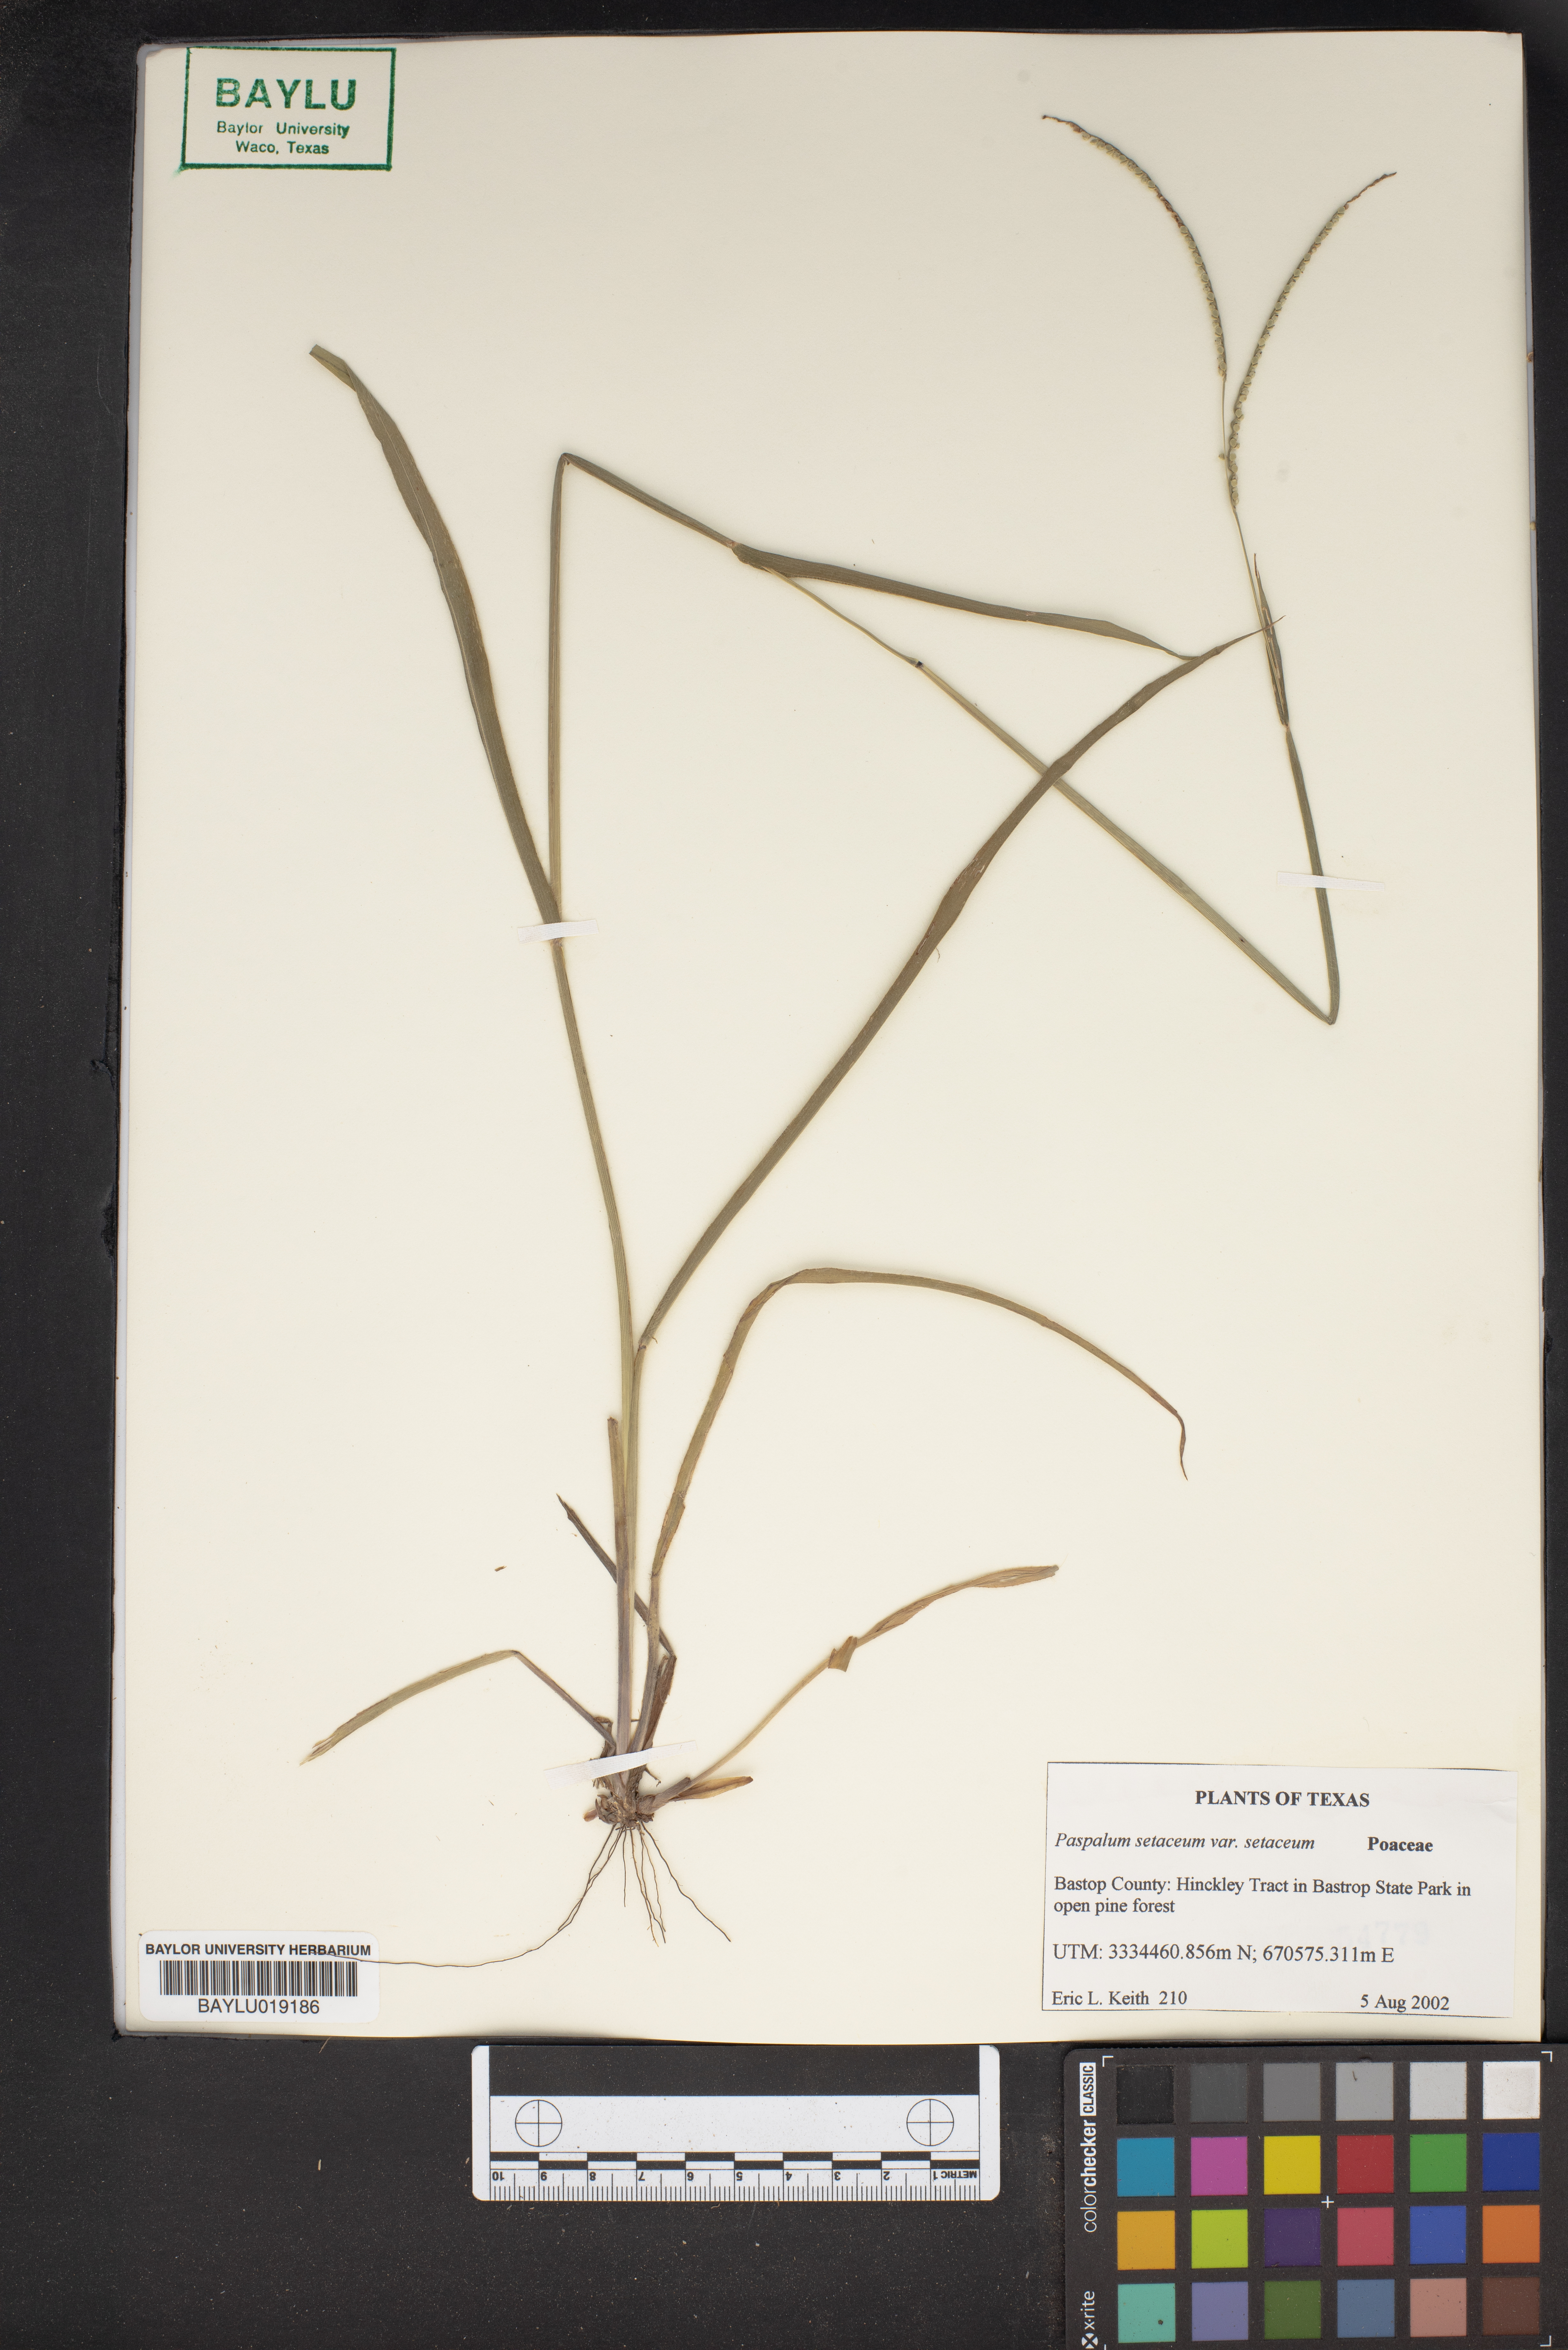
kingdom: Plantae
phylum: Tracheophyta
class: Liliopsida
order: Poales
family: Poaceae
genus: Paspalum
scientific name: Paspalum setaceum
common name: Slender paspalum
